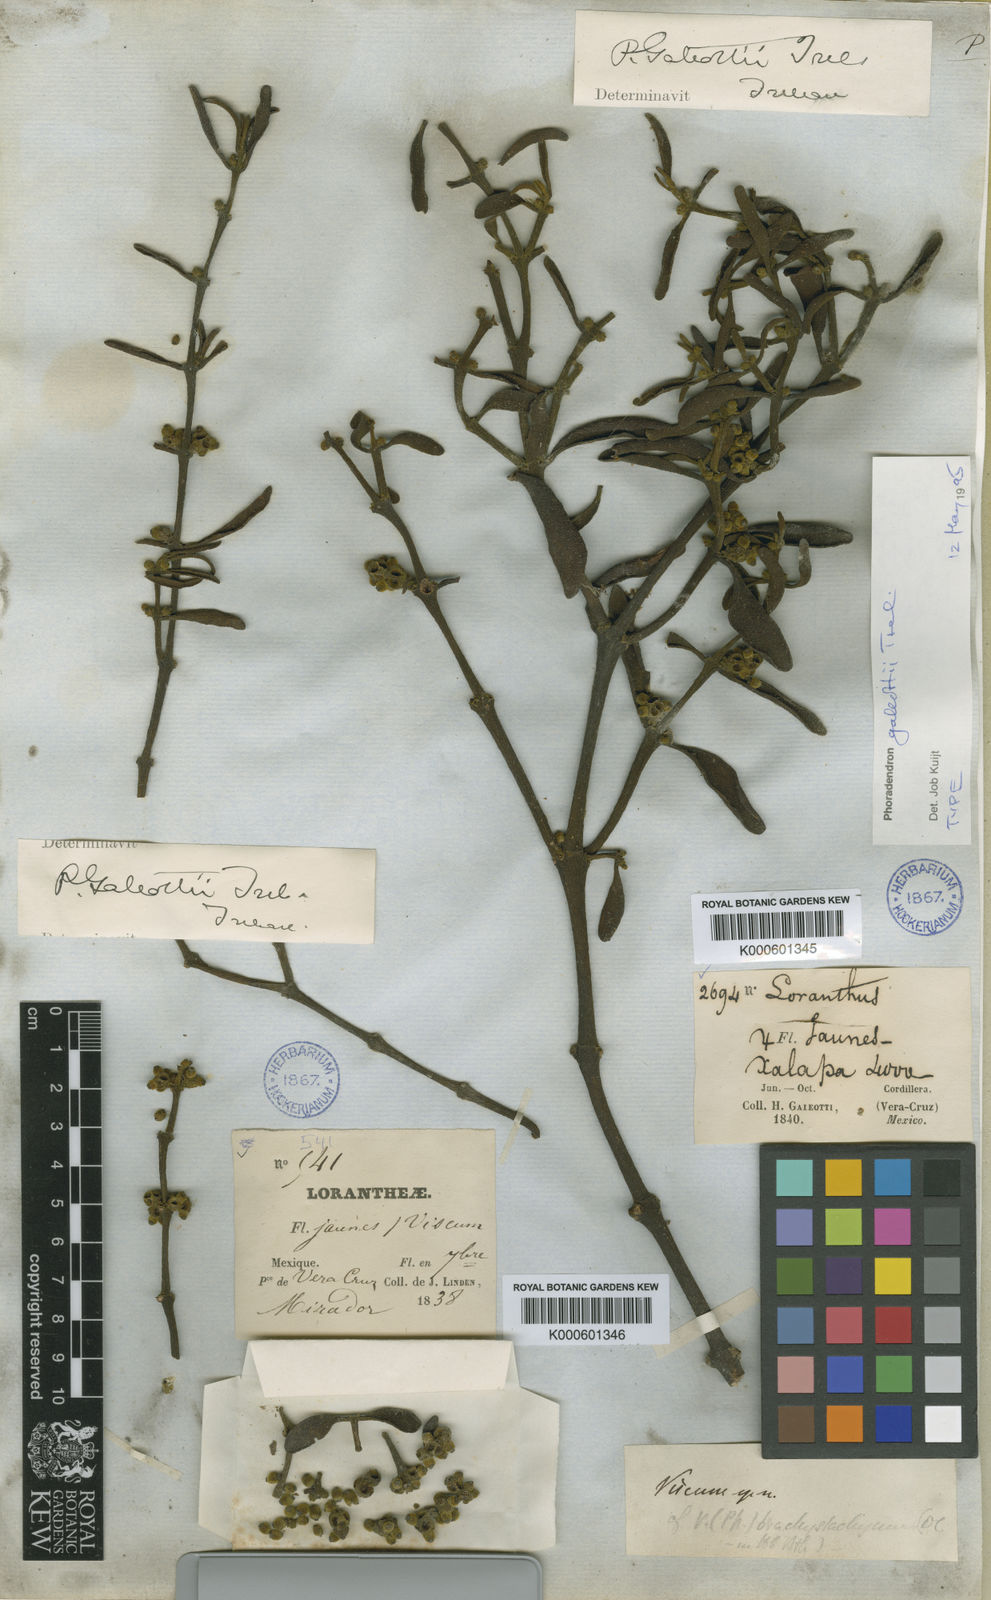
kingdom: Plantae
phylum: Tracheophyta
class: Magnoliopsida
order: Santalales
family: Viscaceae
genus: Phoradendron
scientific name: Phoradendron galeottii
